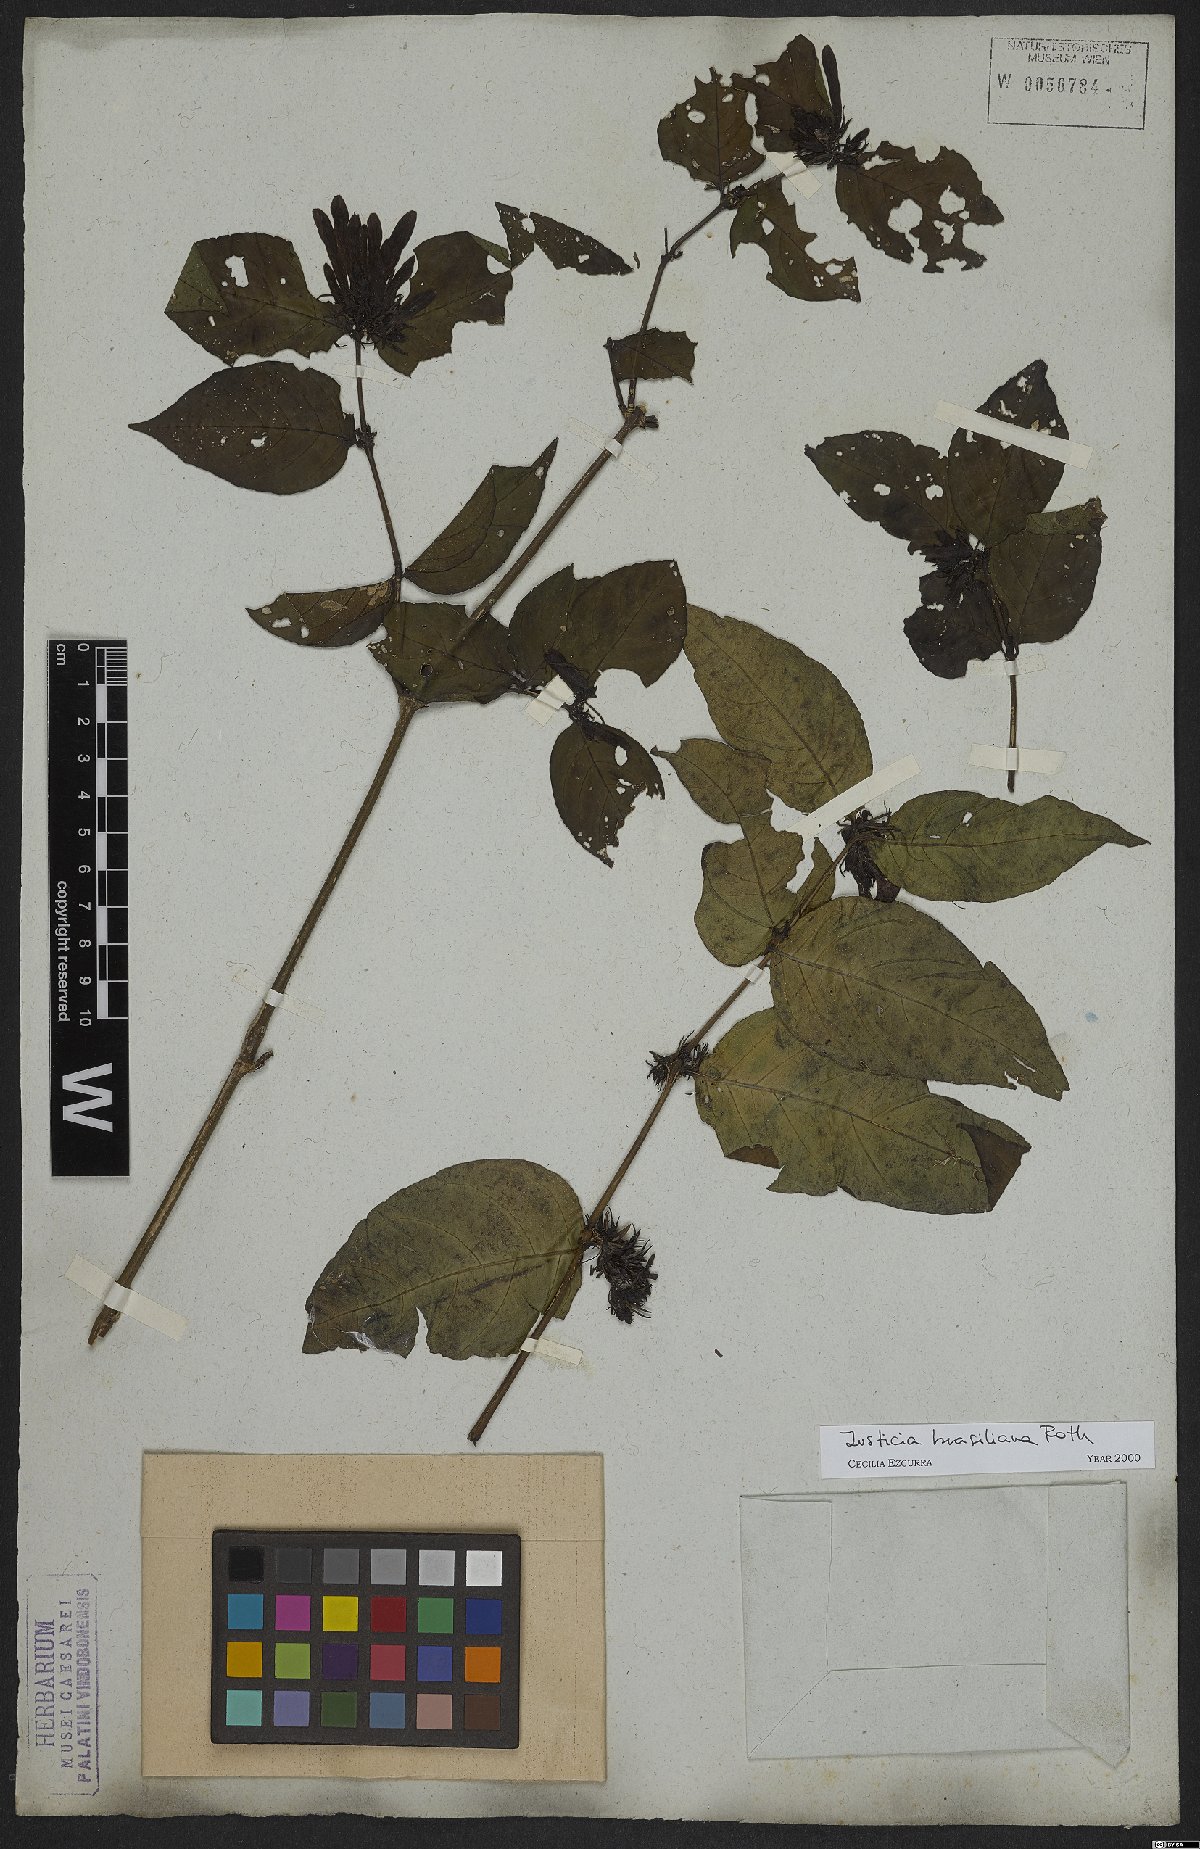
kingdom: Plantae
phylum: Tracheophyta
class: Magnoliopsida
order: Lamiales
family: Acanthaceae
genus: Justicia
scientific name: Justicia brasiliana
